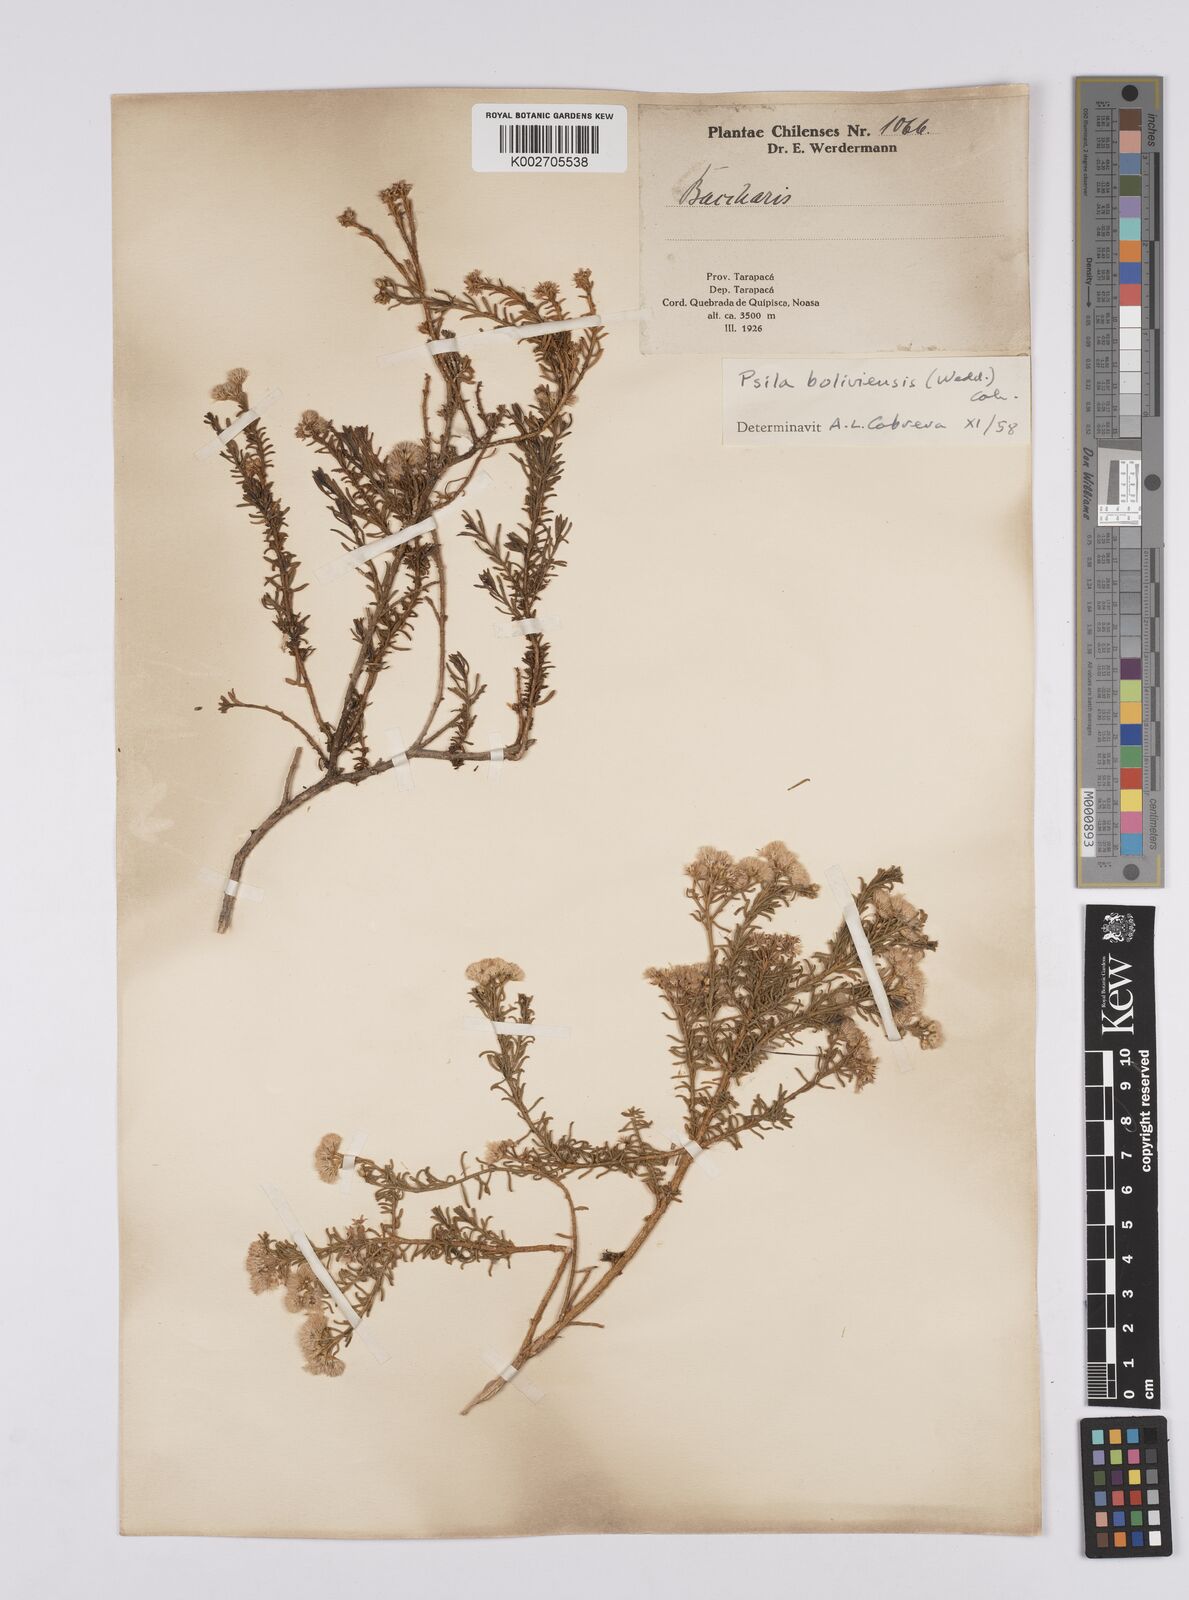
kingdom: Plantae
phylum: Tracheophyta
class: Magnoliopsida
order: Asterales
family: Asteraceae
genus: Baccharis
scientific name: Baccharis bolivensis
